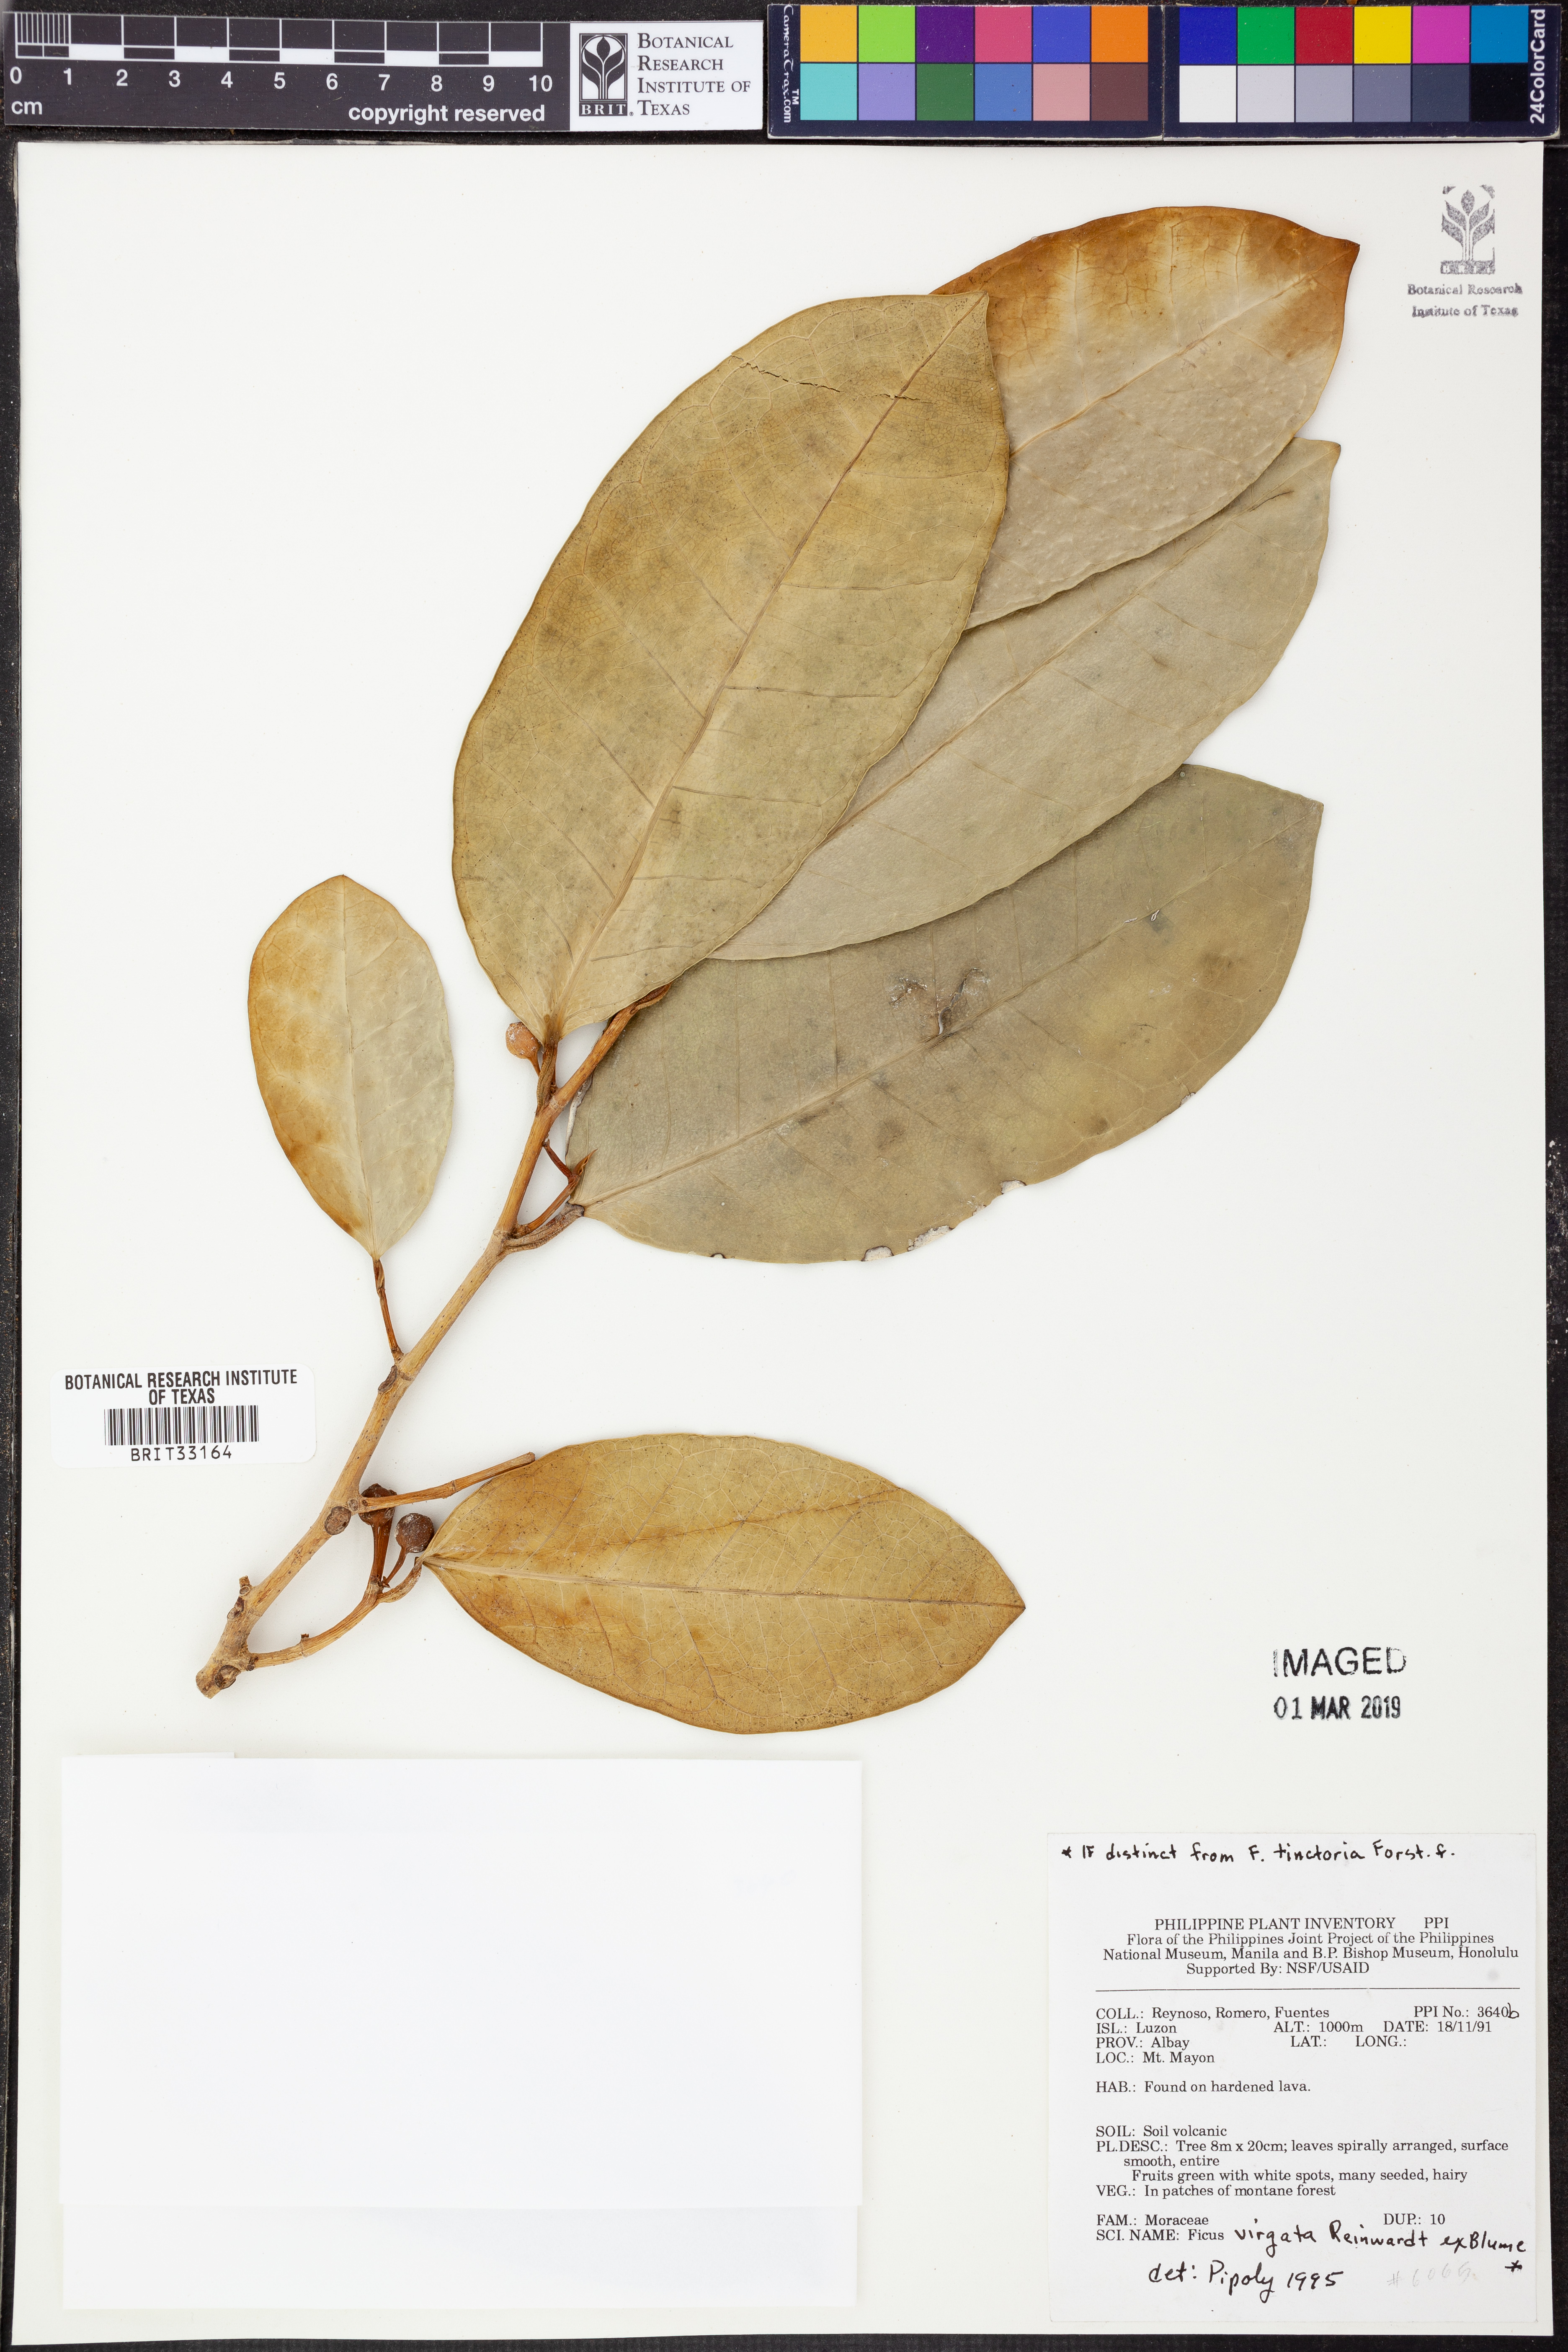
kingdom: Plantae
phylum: Tracheophyta
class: Magnoliopsida
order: Rosales
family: Moraceae
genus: Ficus
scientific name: Ficus virgata
